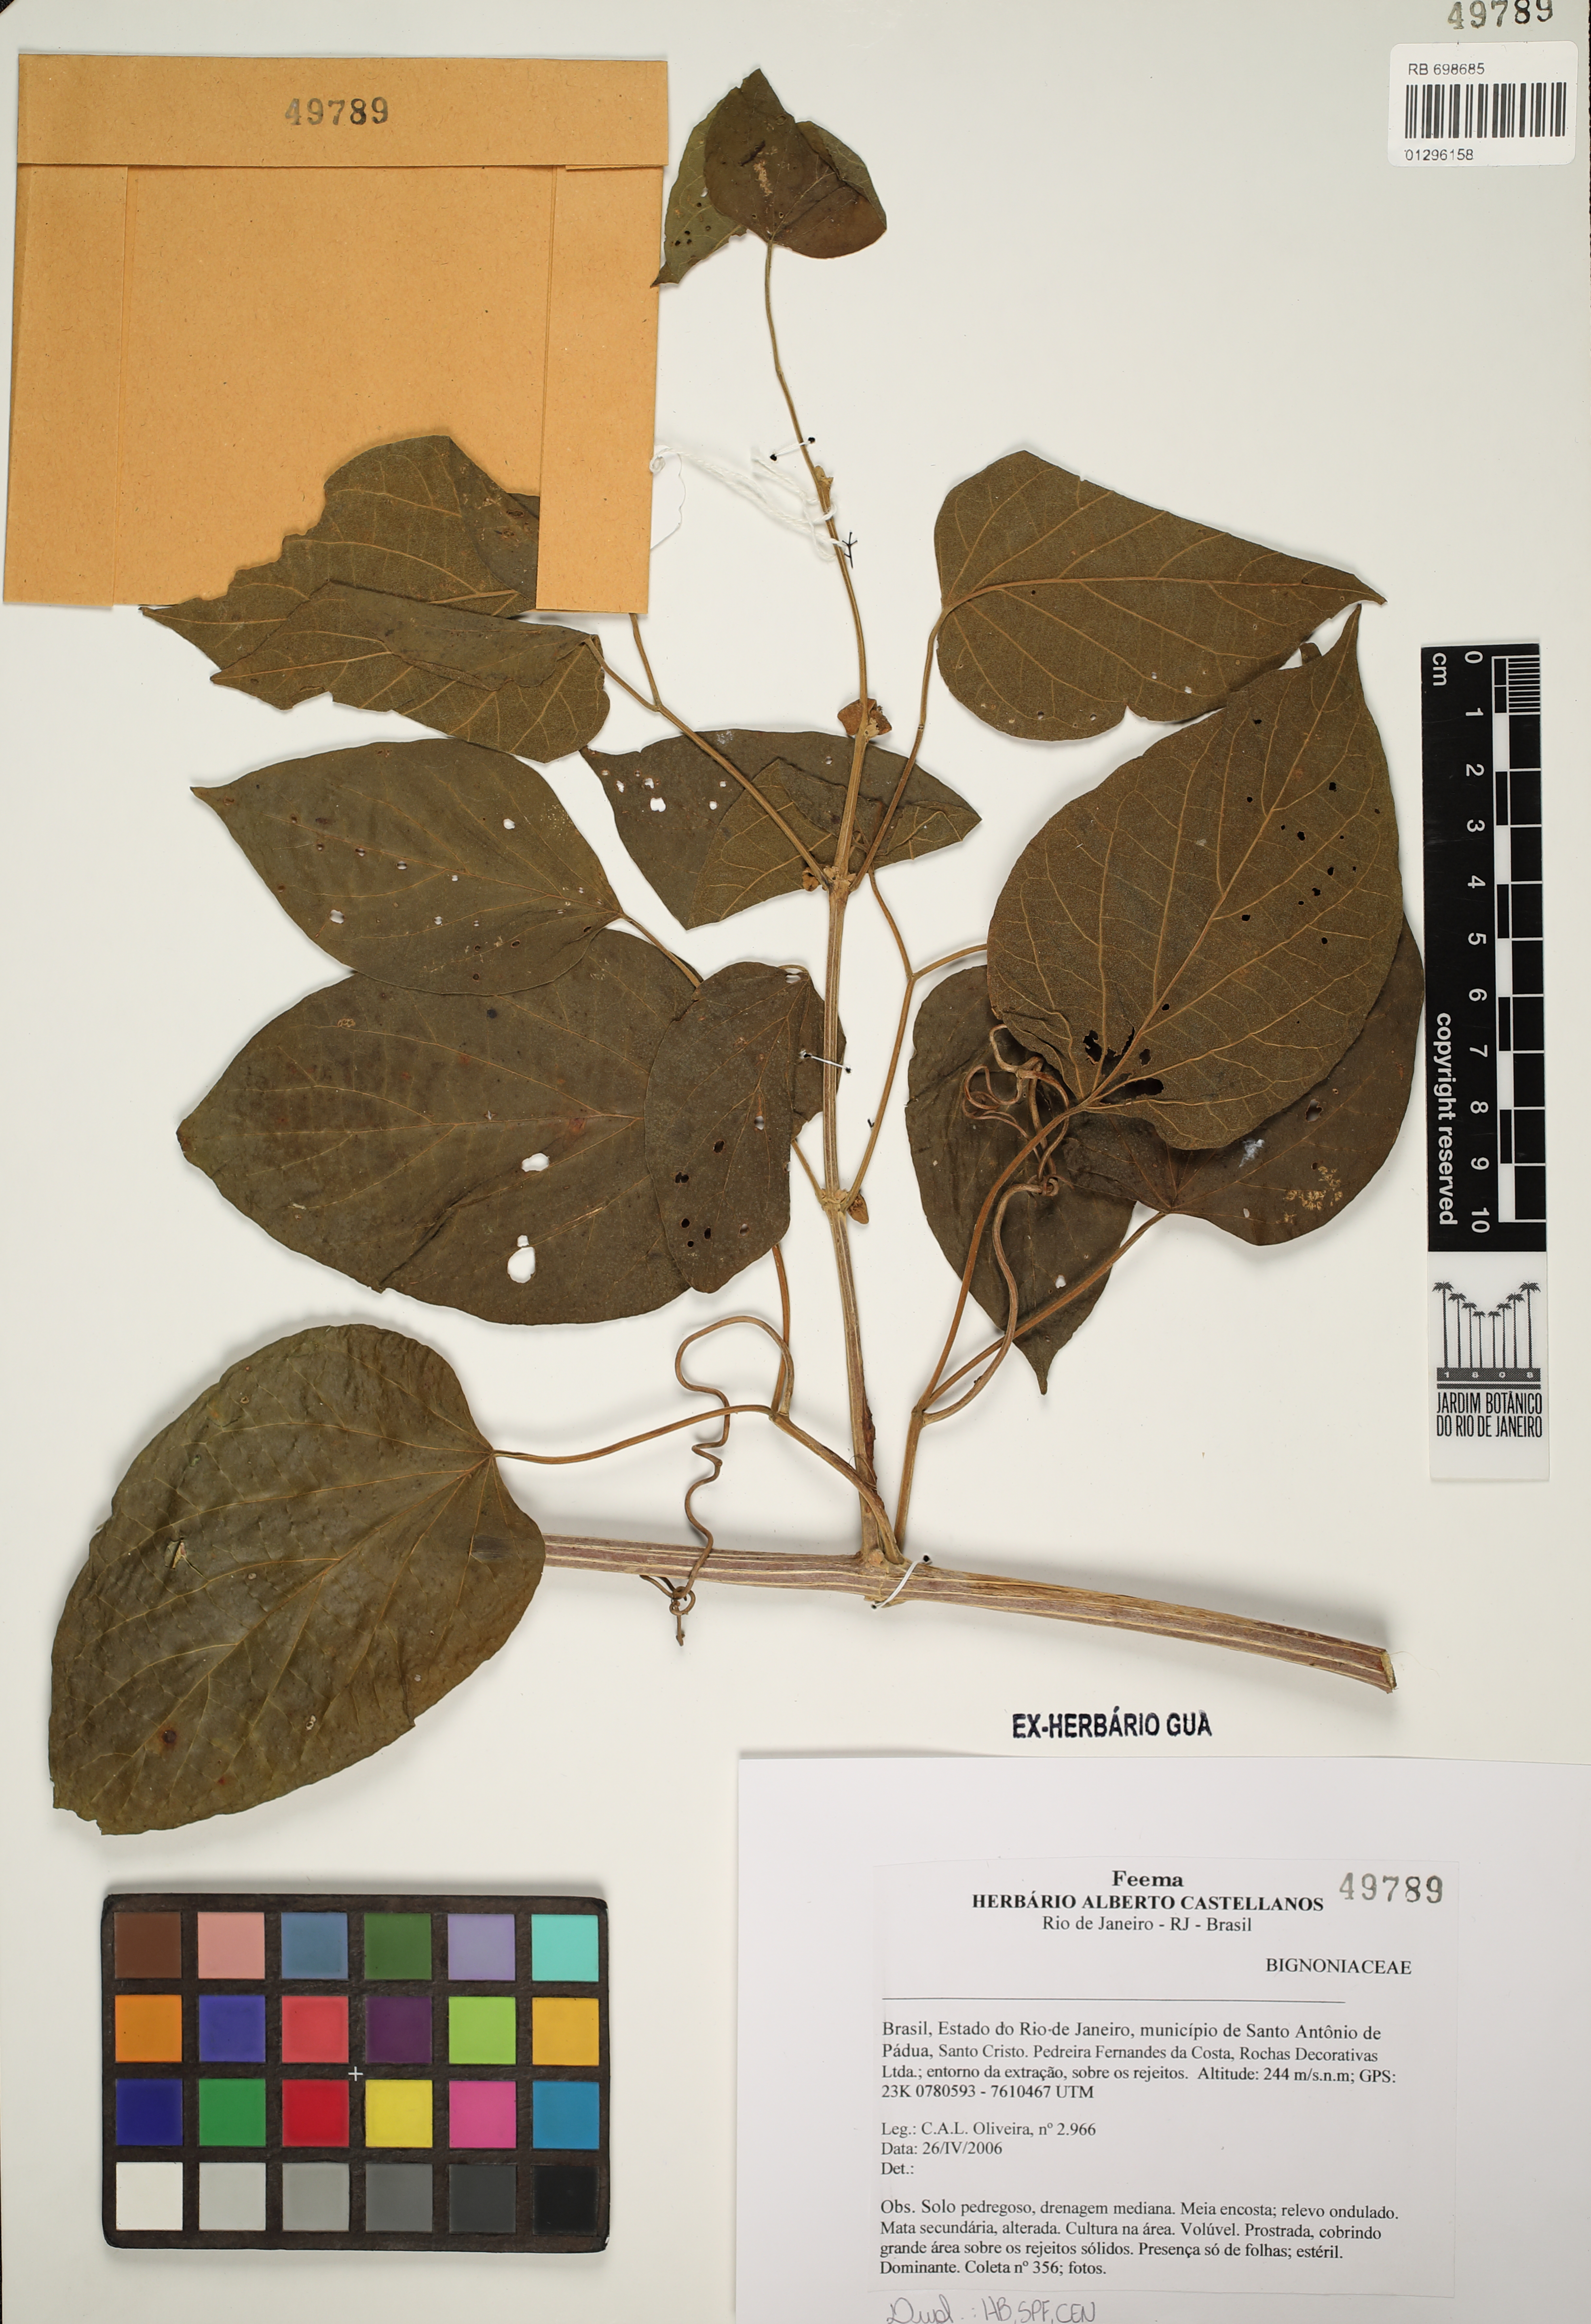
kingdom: Plantae
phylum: Tracheophyta
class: Magnoliopsida
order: Lamiales
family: Bignoniaceae
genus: Amphilophium
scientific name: Amphilophium crucigerum
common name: Monkey comb
